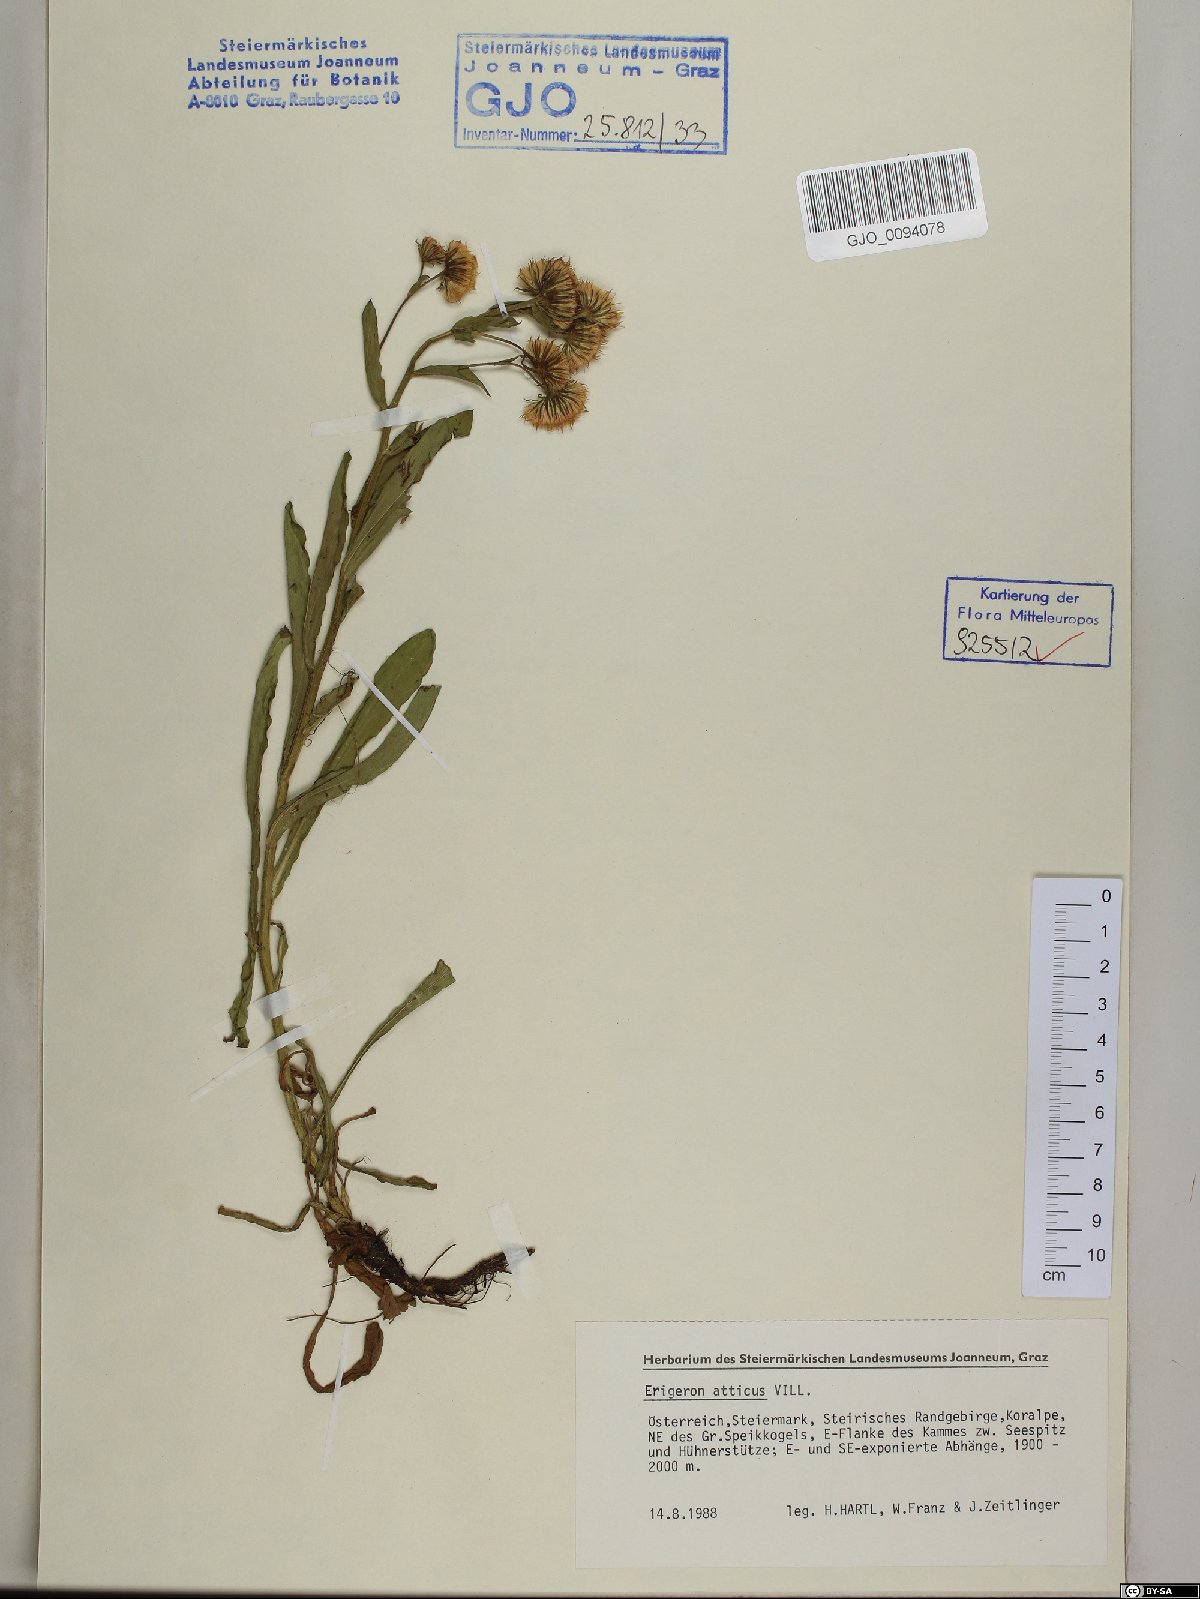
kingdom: Plantae
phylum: Tracheophyta
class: Magnoliopsida
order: Asterales
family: Asteraceae
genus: Erigeron
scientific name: Erigeron atticus
